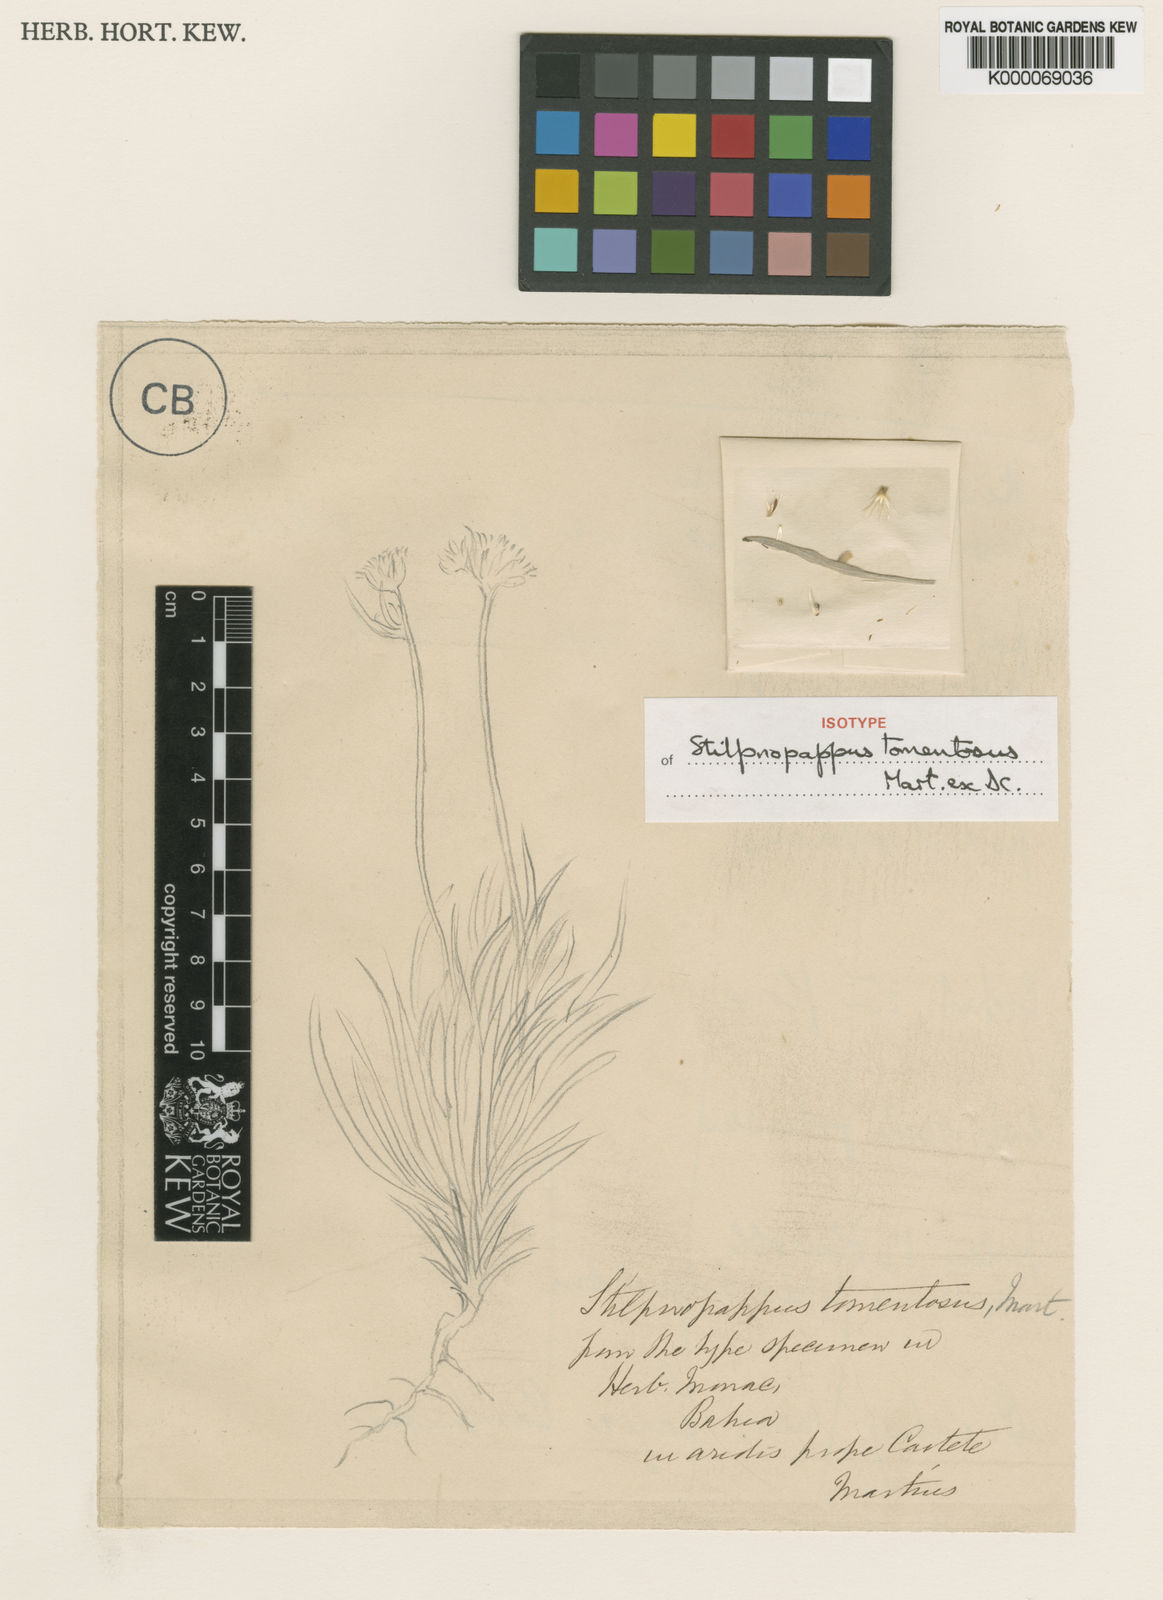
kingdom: Plantae
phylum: Tracheophyta
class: Magnoliopsida
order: Asterales
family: Asteraceae
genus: Stilpnopappus
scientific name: Stilpnopappus tomentosus
